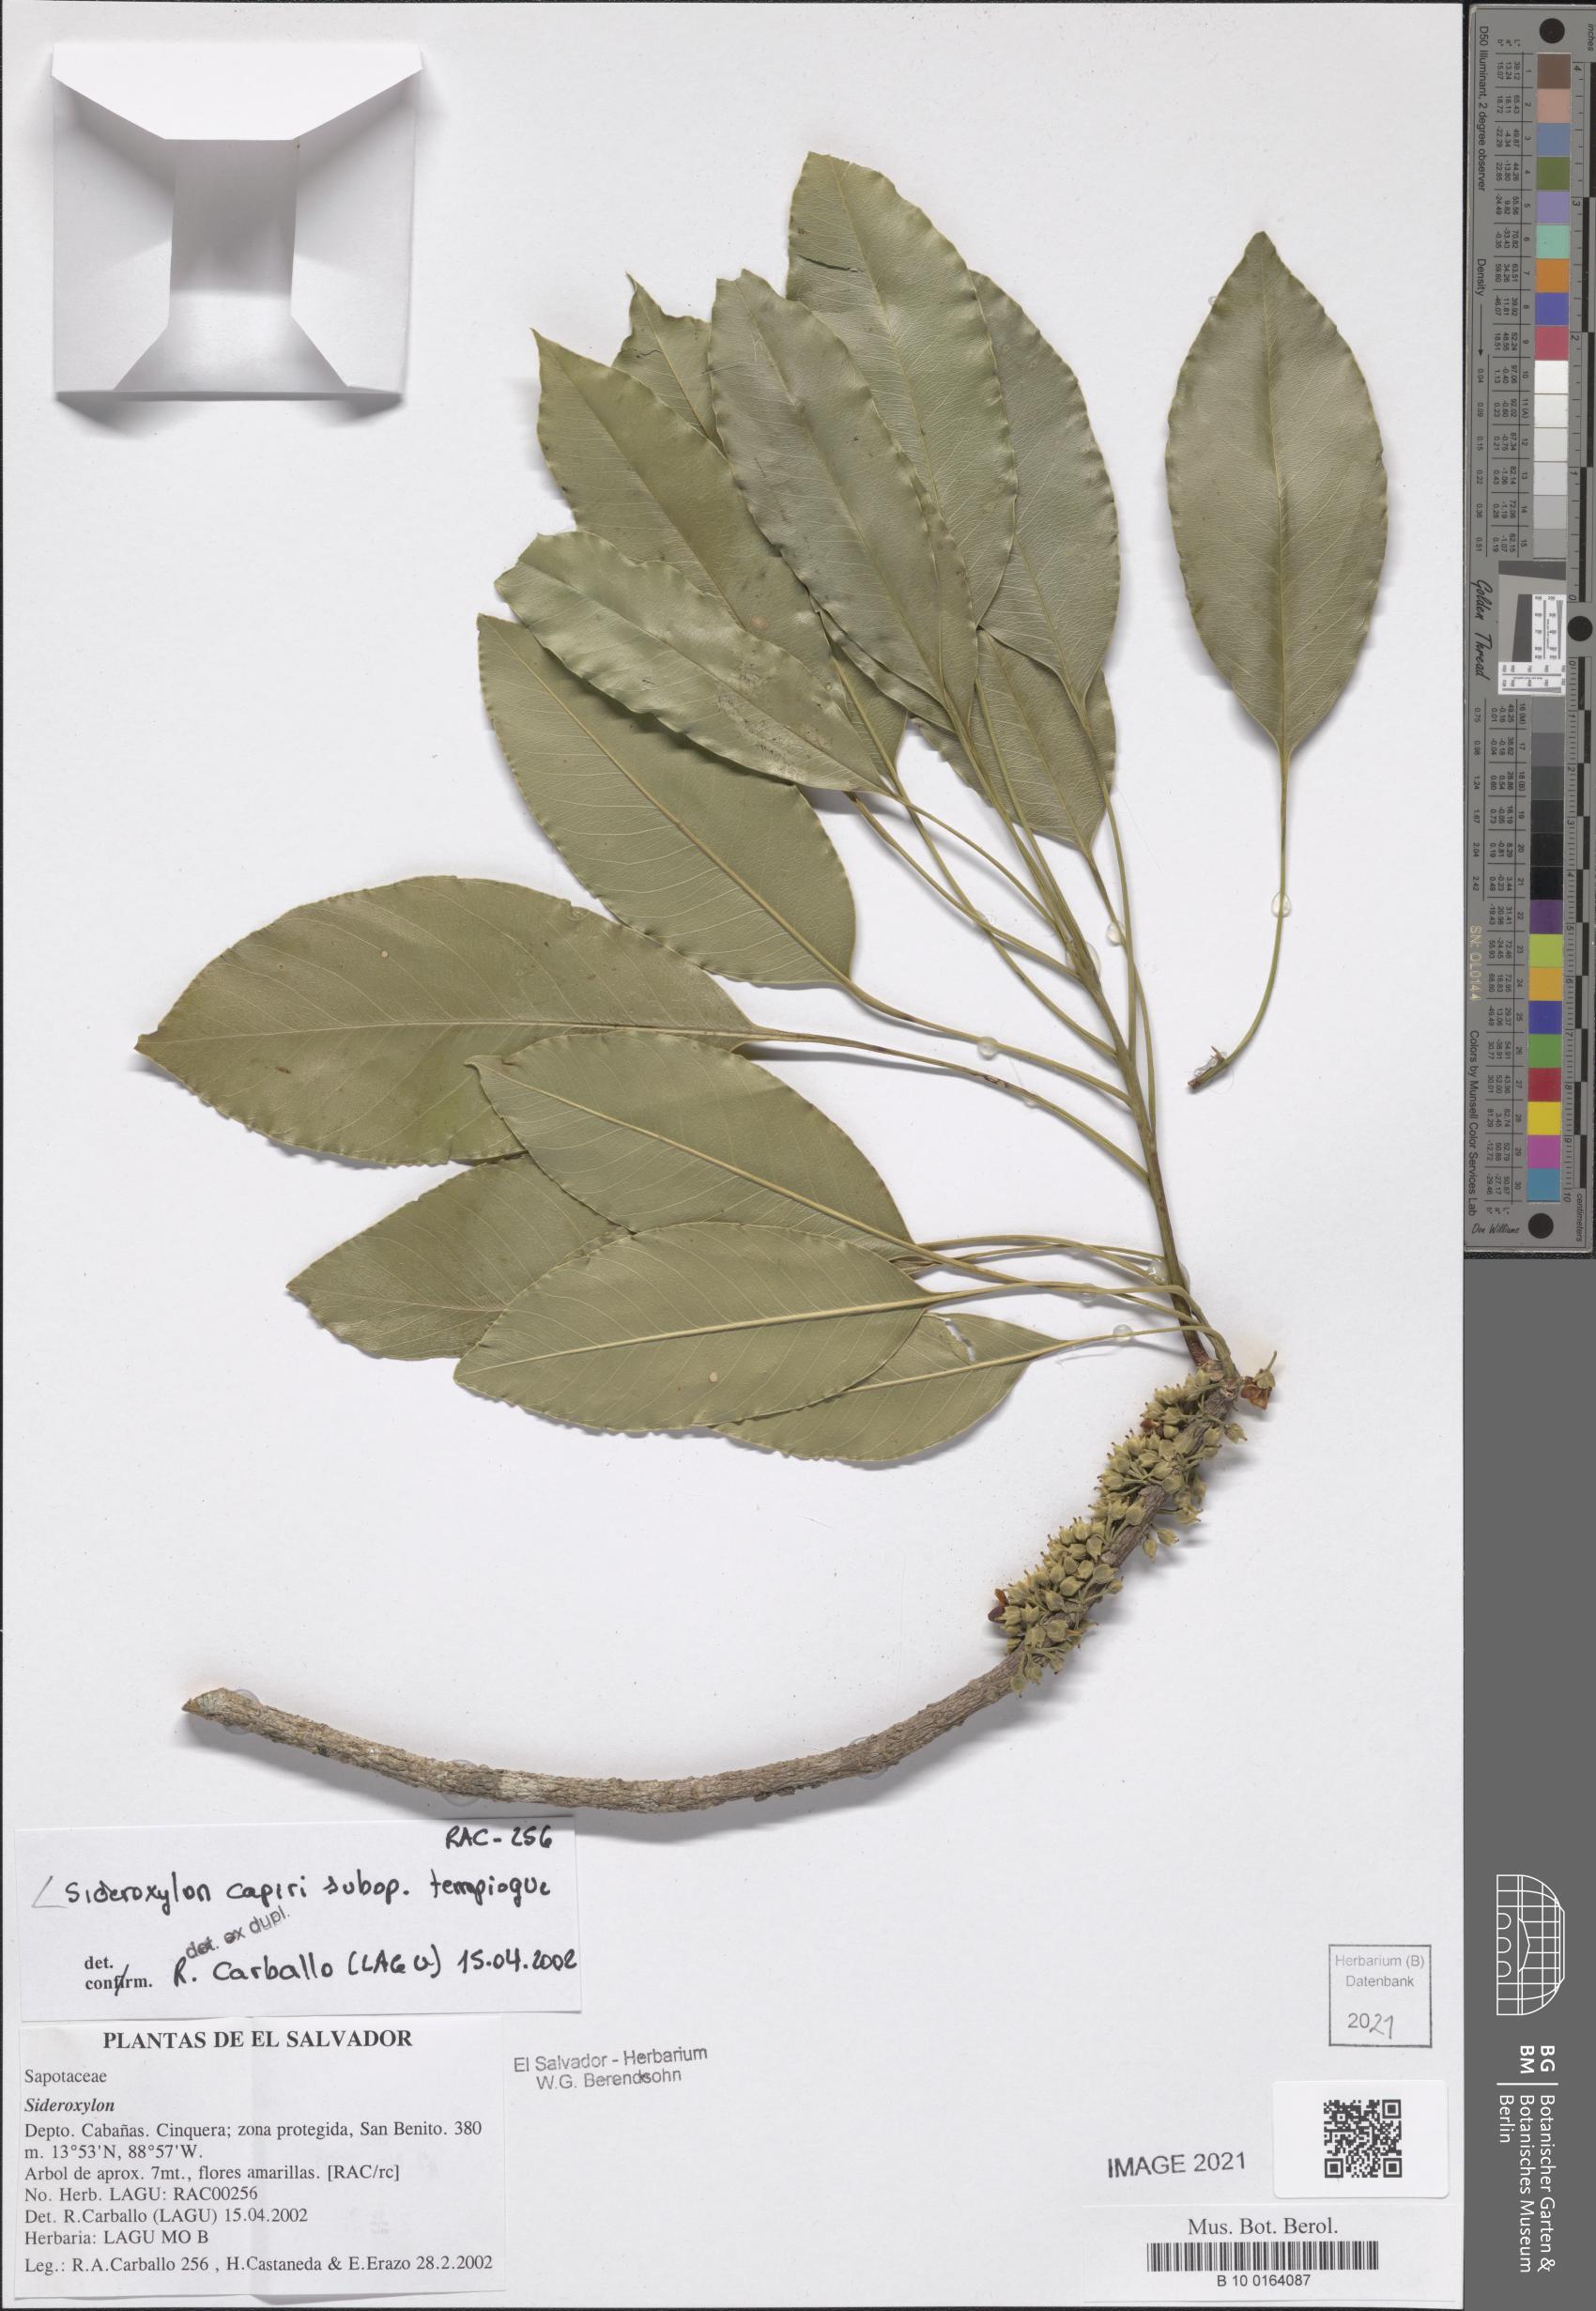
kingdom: Plantae
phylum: Tracheophyta
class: Magnoliopsida
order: Ericales
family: Sapotaceae
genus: Sideroxylon
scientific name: Sideroxylon capiri
